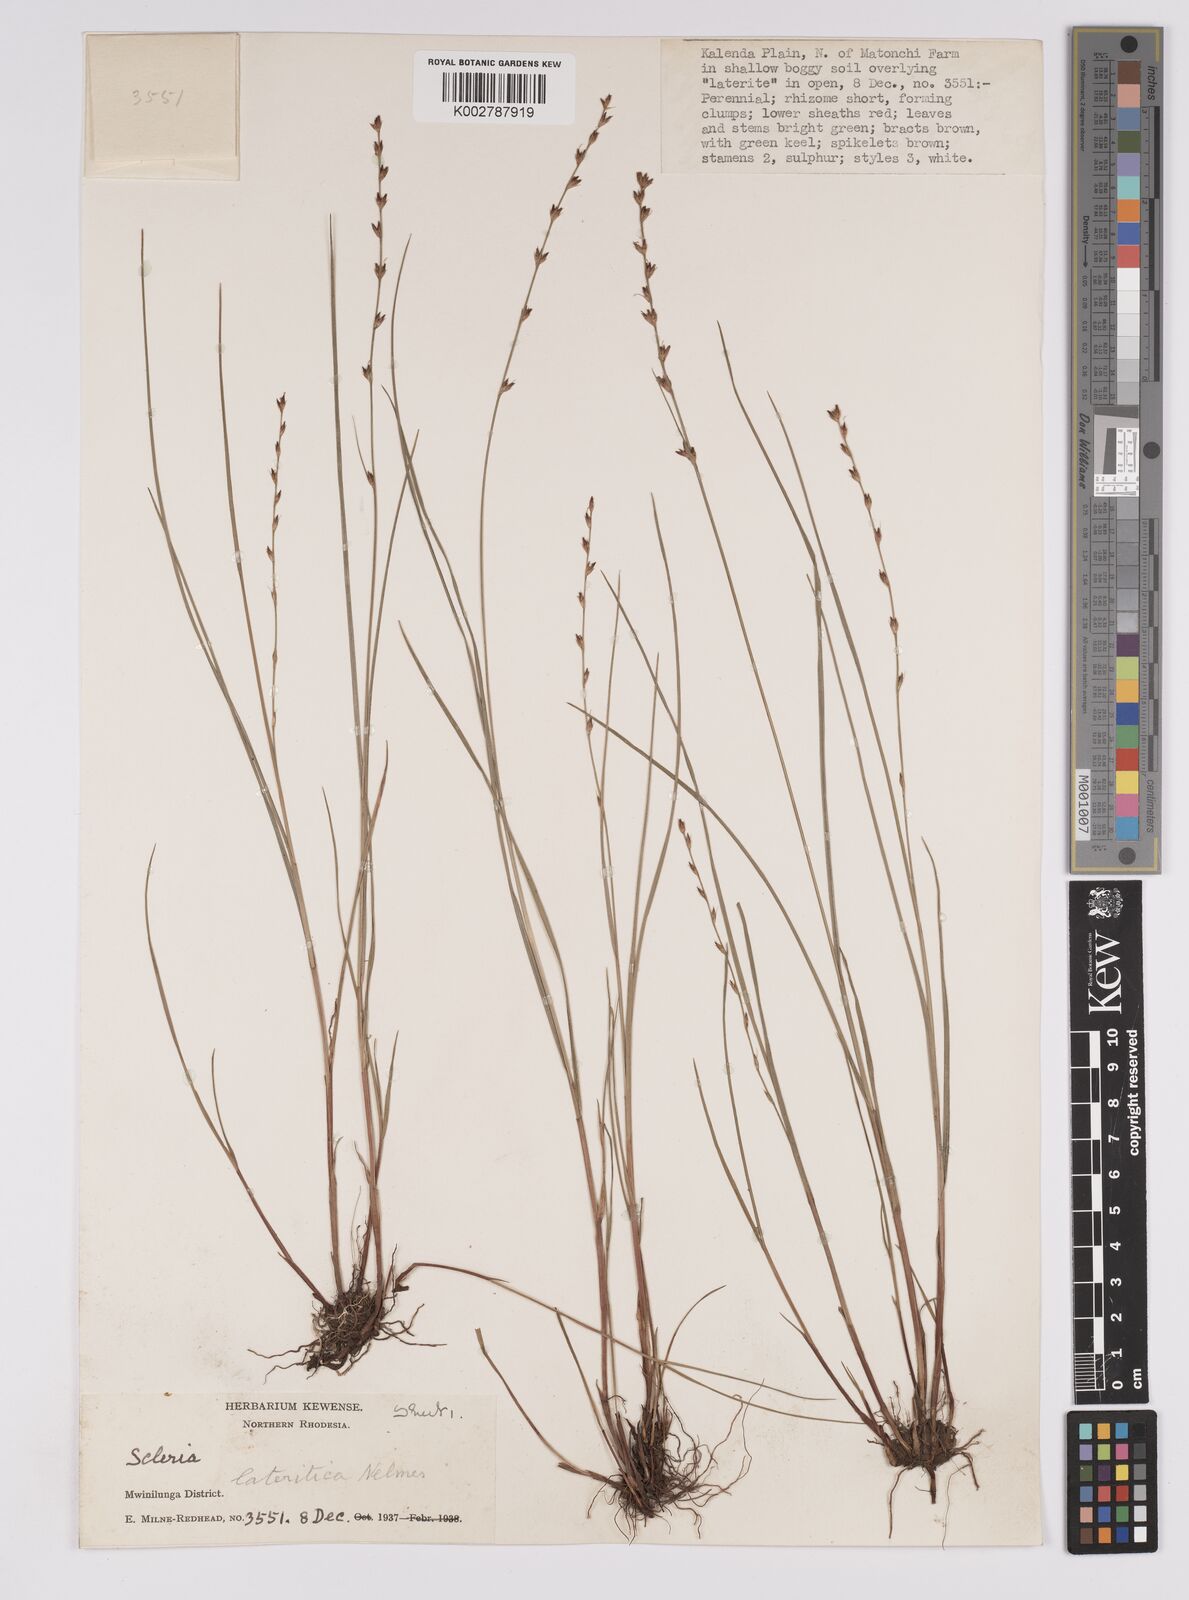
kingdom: Plantae
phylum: Tracheophyta
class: Liliopsida
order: Poales
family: Cyperaceae
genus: Scleria
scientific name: Scleria lateritica
